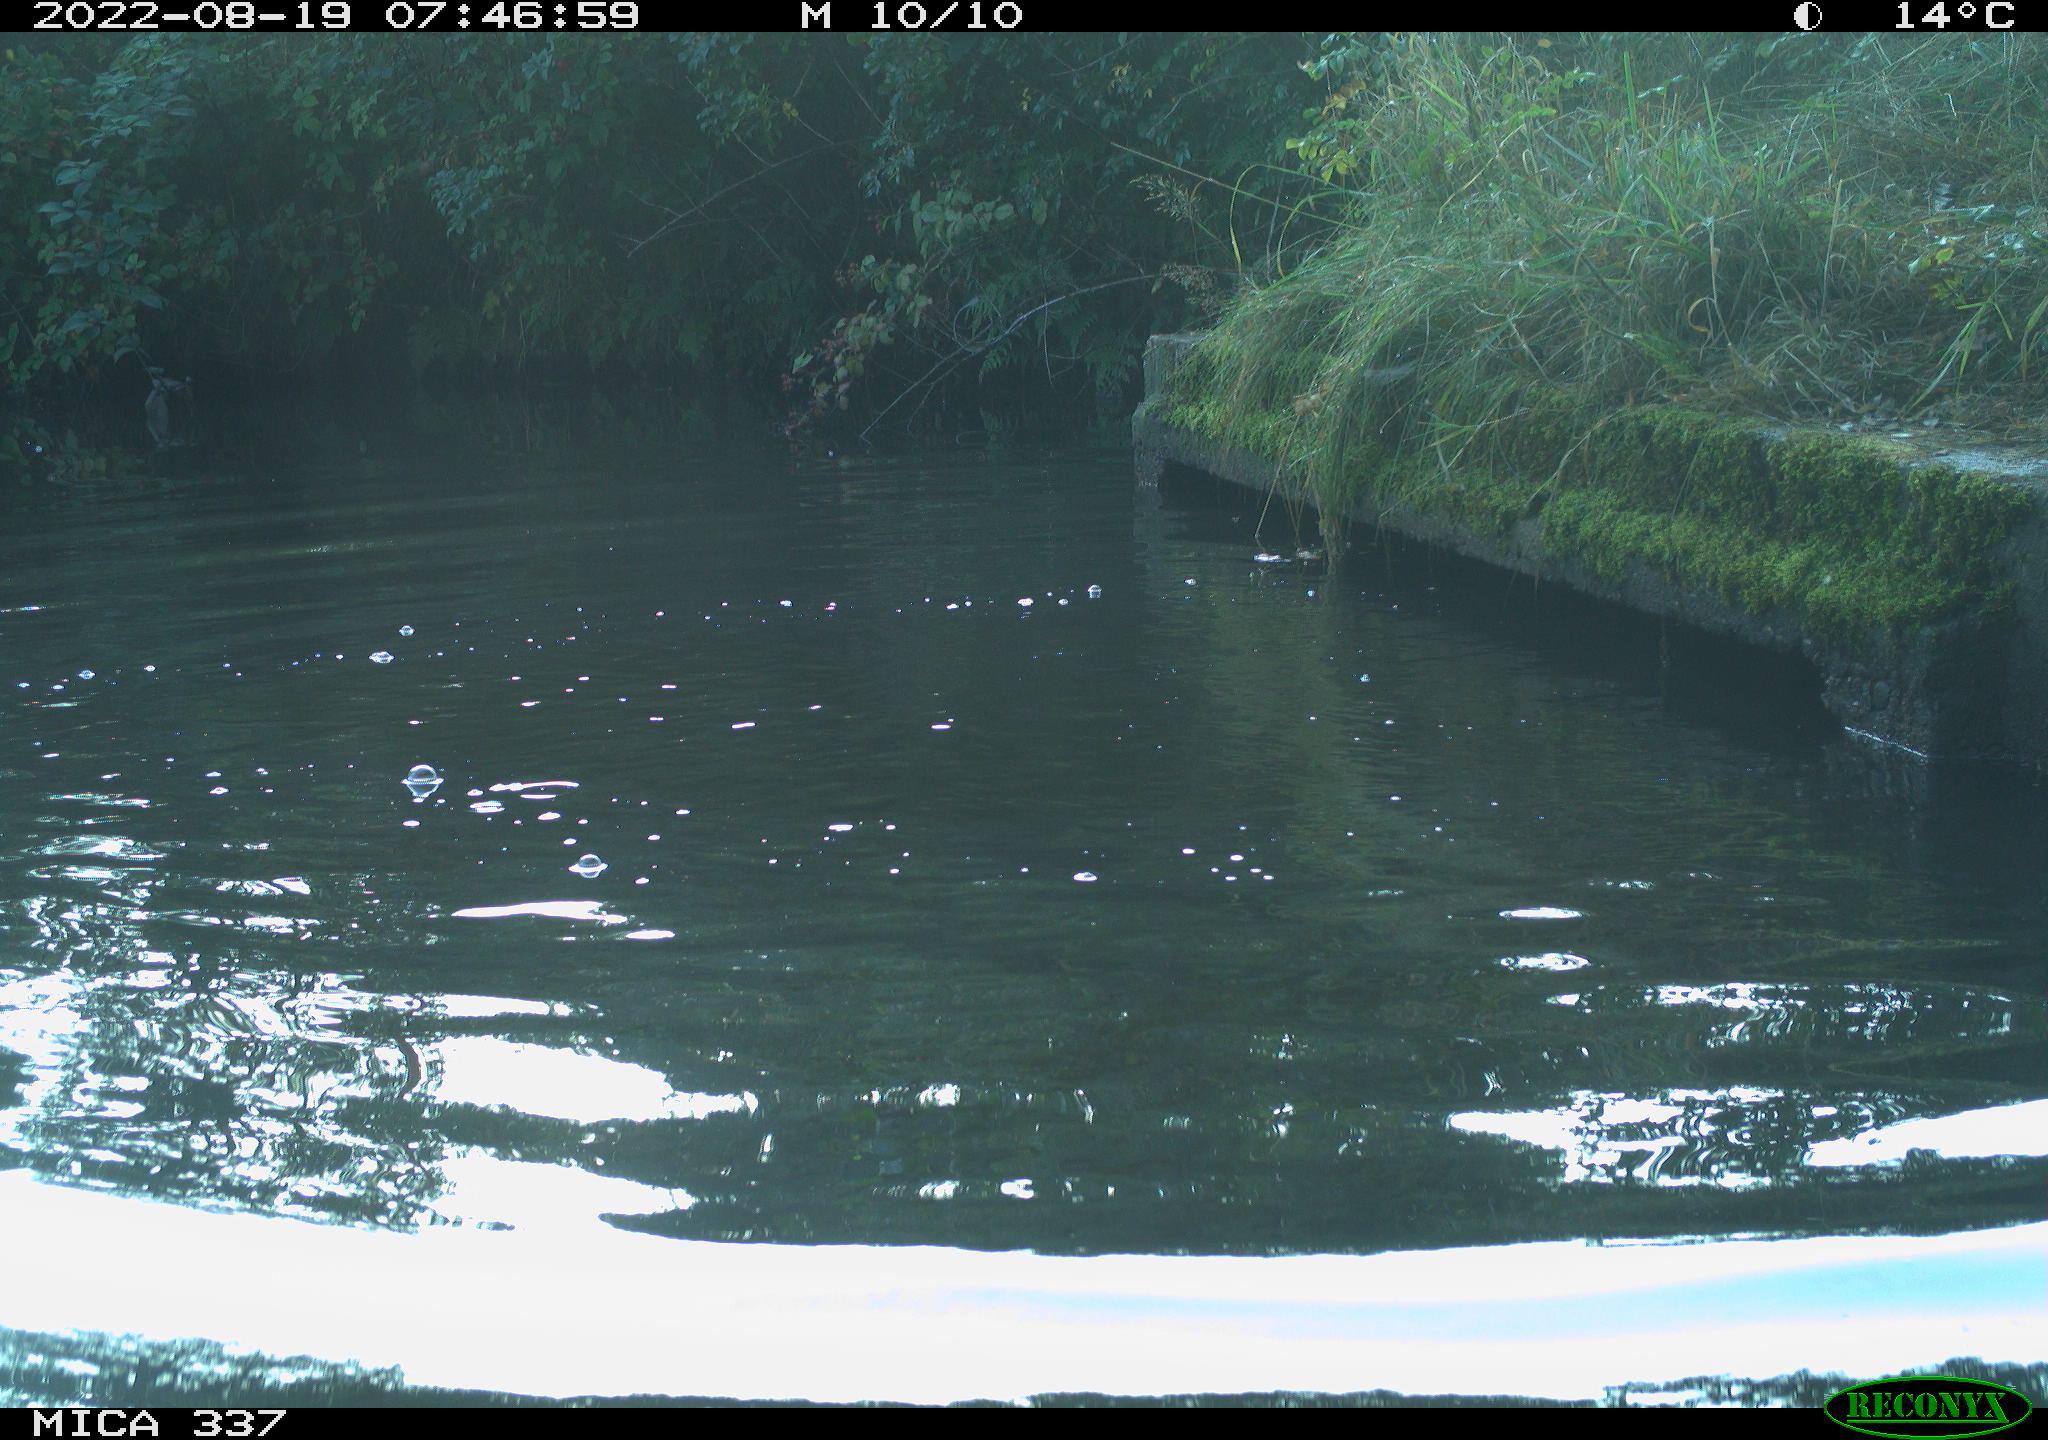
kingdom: Animalia
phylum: Chordata
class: Aves
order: Anseriformes
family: Anatidae
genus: Anas
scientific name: Anas platyrhynchos
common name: Mallard
